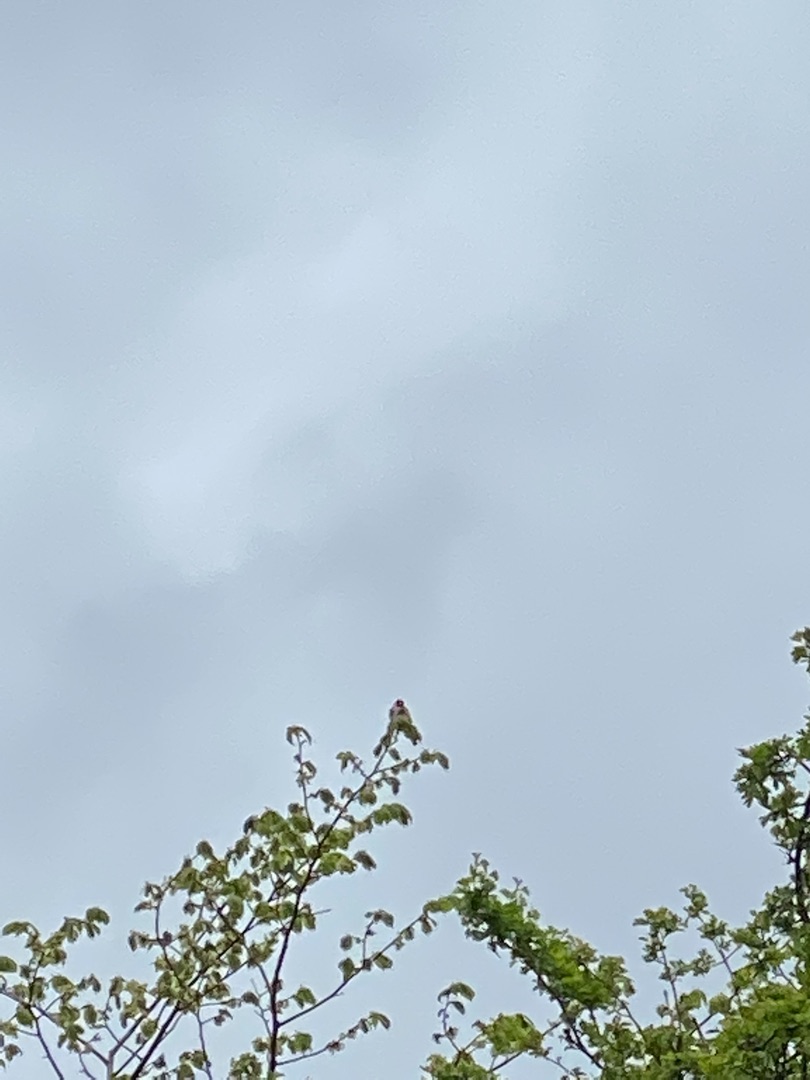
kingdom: Animalia
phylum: Chordata
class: Aves
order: Passeriformes
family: Fringillidae
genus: Carduelis
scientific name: Carduelis carduelis
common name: Stillits
